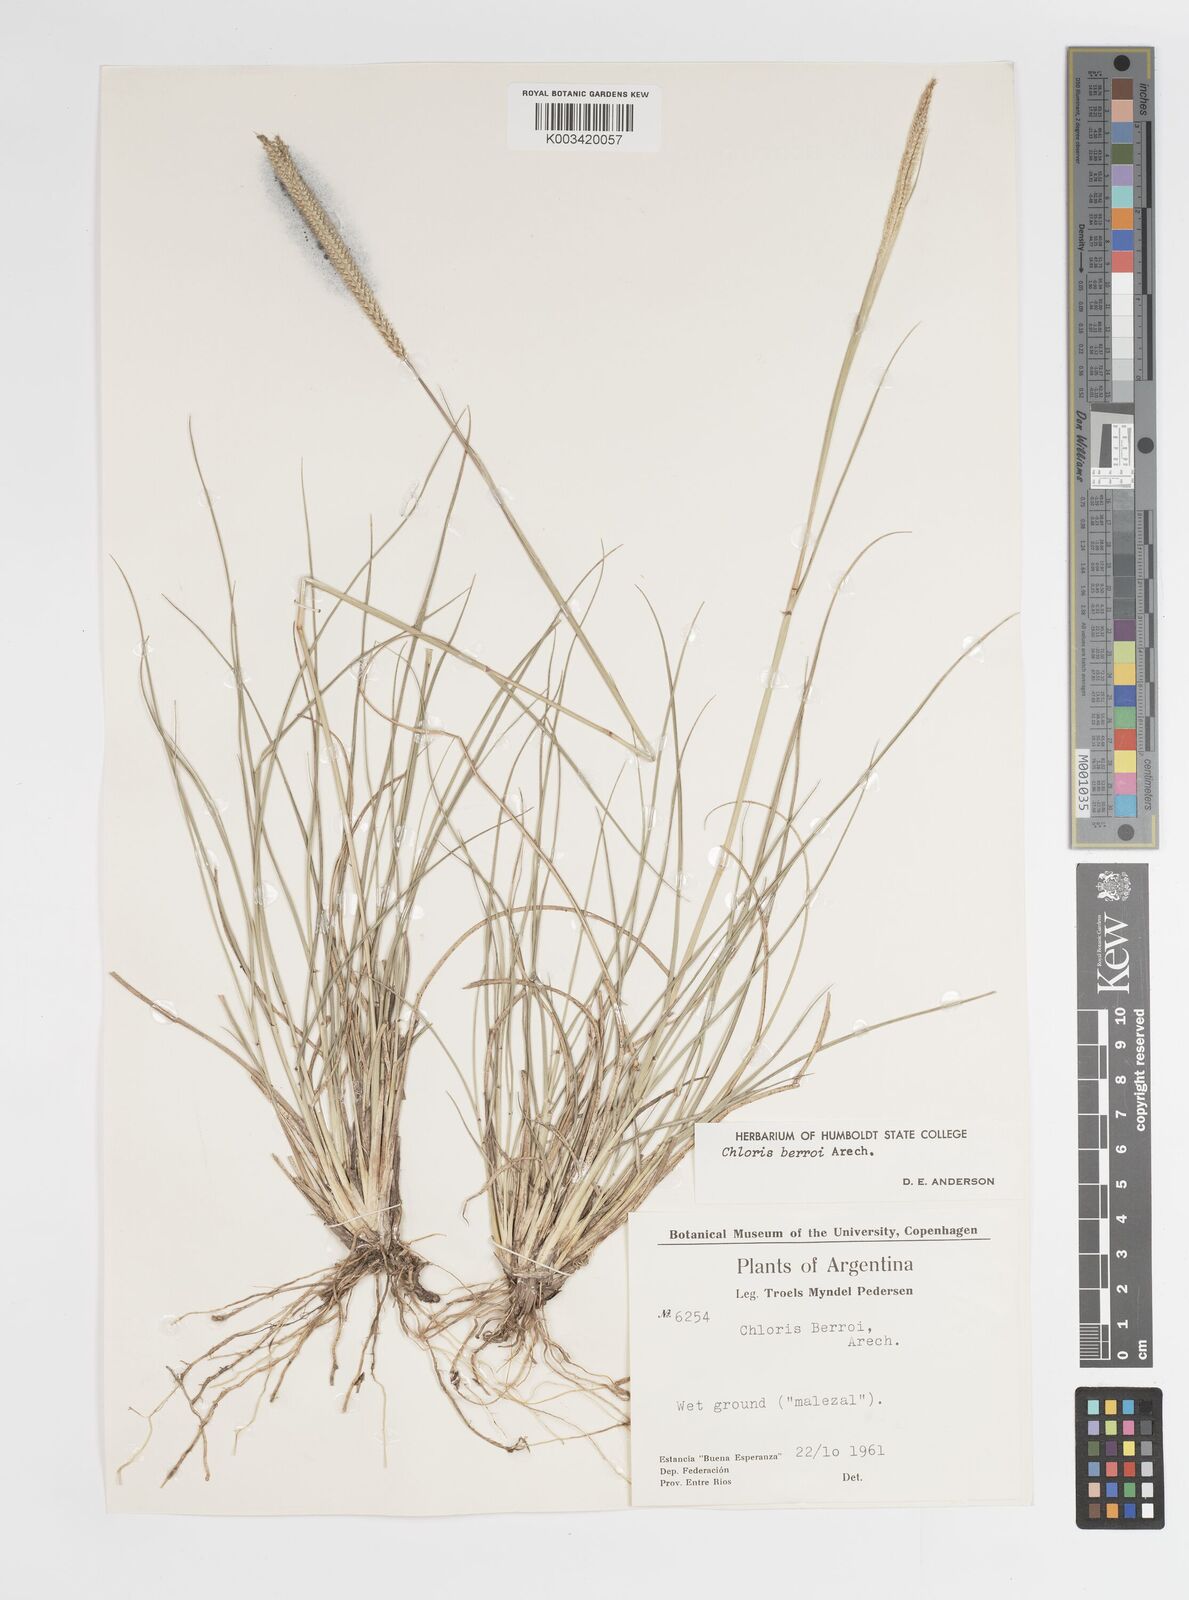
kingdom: Plantae
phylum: Tracheophyta
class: Liliopsida
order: Poales
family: Poaceae
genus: Stapfochloa
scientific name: Stapfochloa berroi
